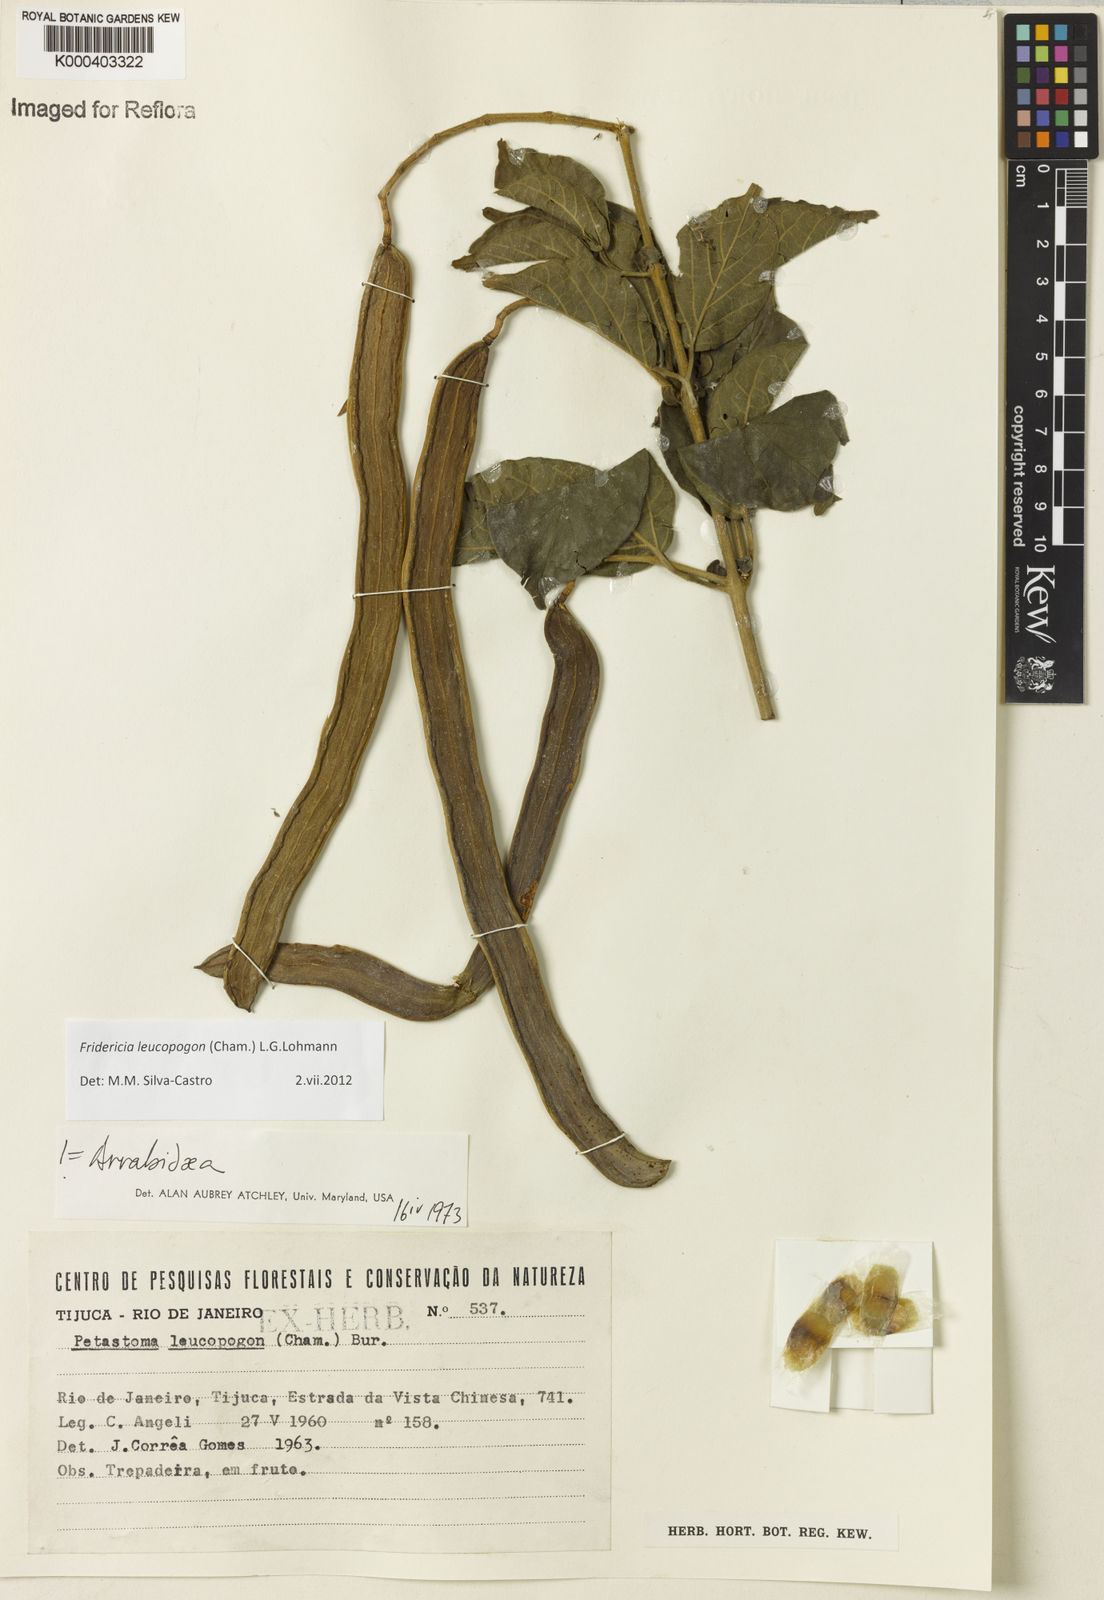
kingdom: Plantae
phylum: Tracheophyta
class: Magnoliopsida
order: Lamiales
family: Bignoniaceae
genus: Fridericia
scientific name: Fridericia leucopogon
